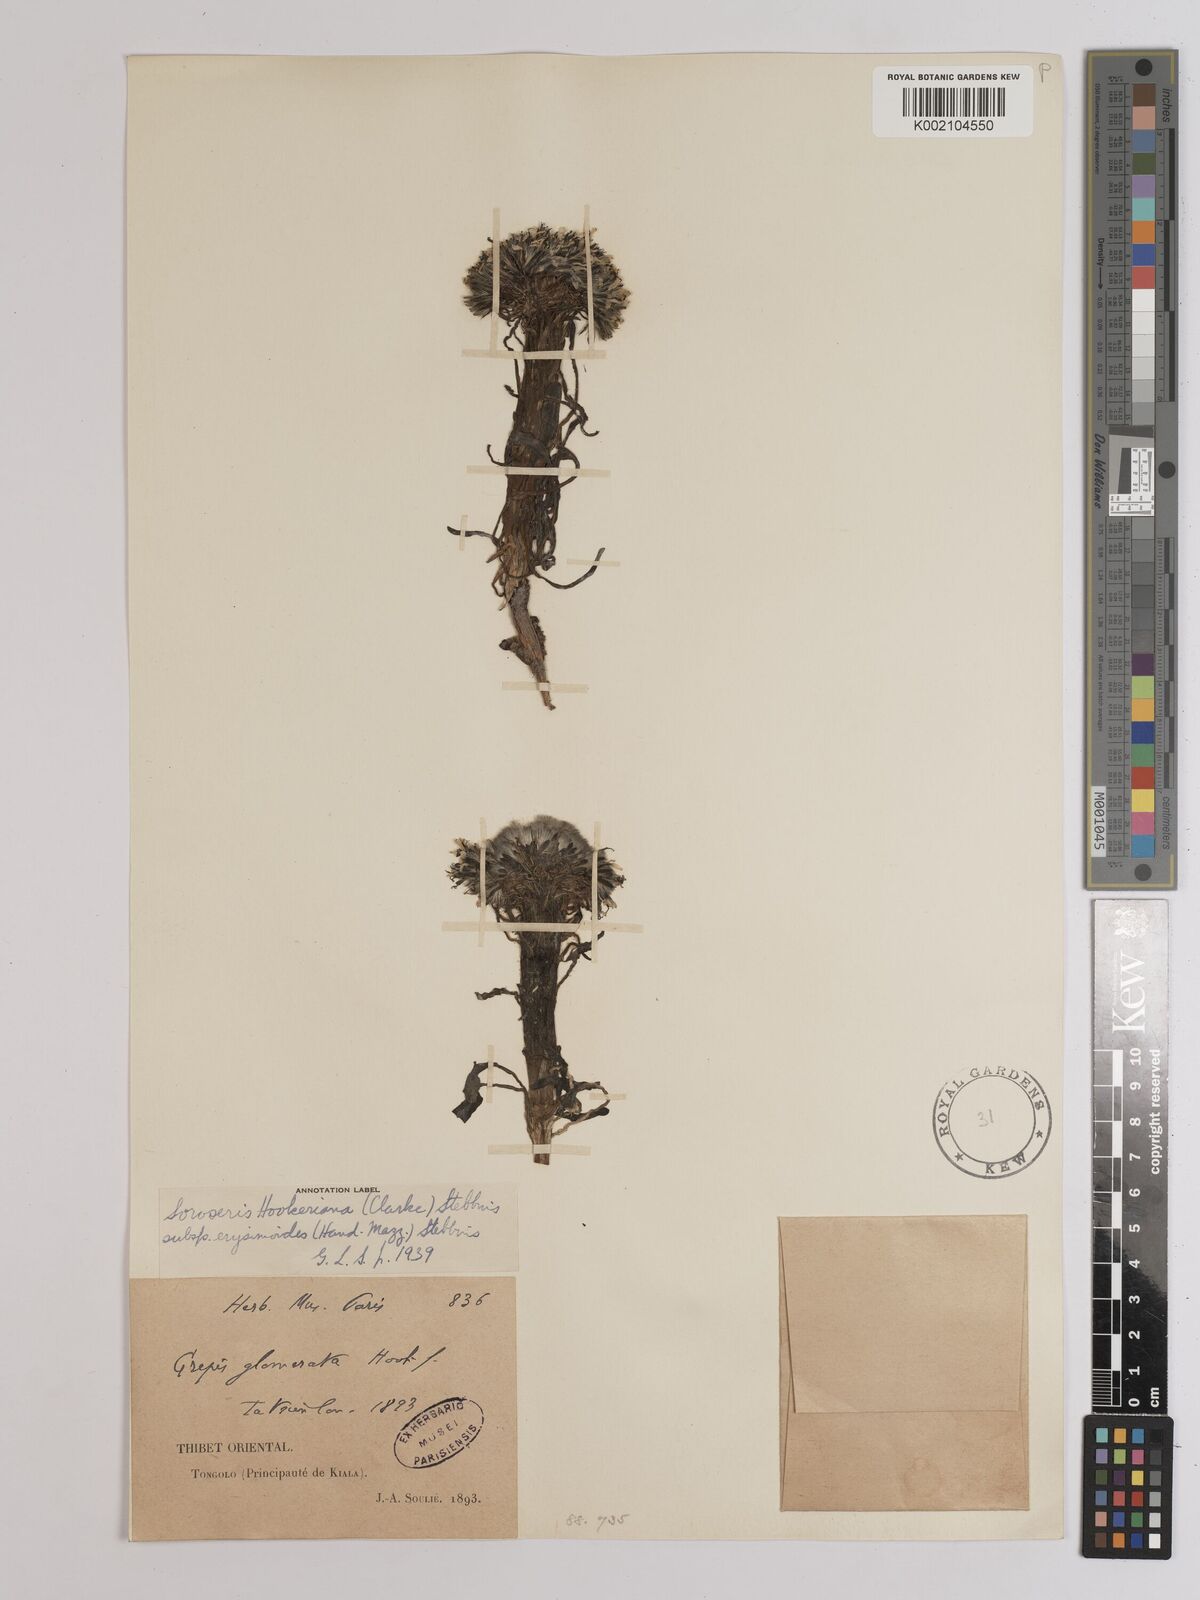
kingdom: Plantae
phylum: Tracheophyta
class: Magnoliopsida
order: Asterales
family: Asteraceae
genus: Soroseris
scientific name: Soroseris hookeriana
